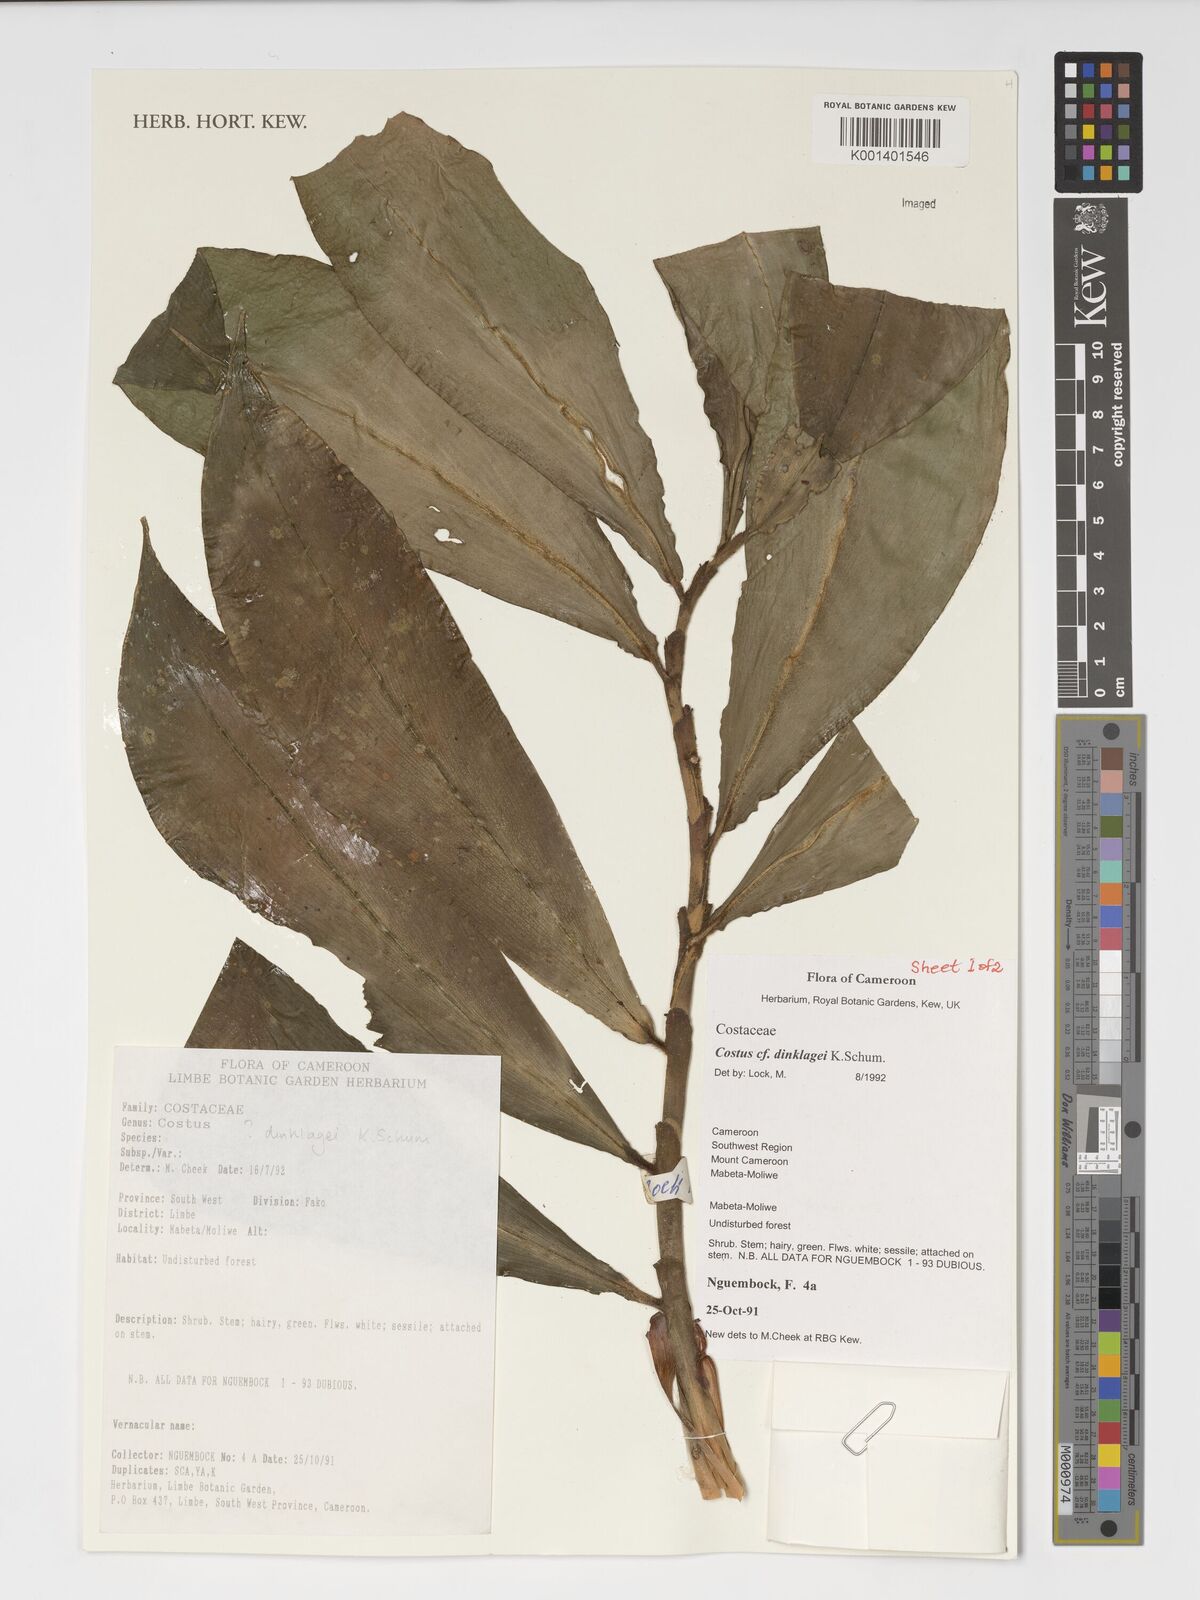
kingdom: Plantae
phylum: Tracheophyta
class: Liliopsida
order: Zingiberales
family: Costaceae
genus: Costus
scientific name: Costus dinklagei
